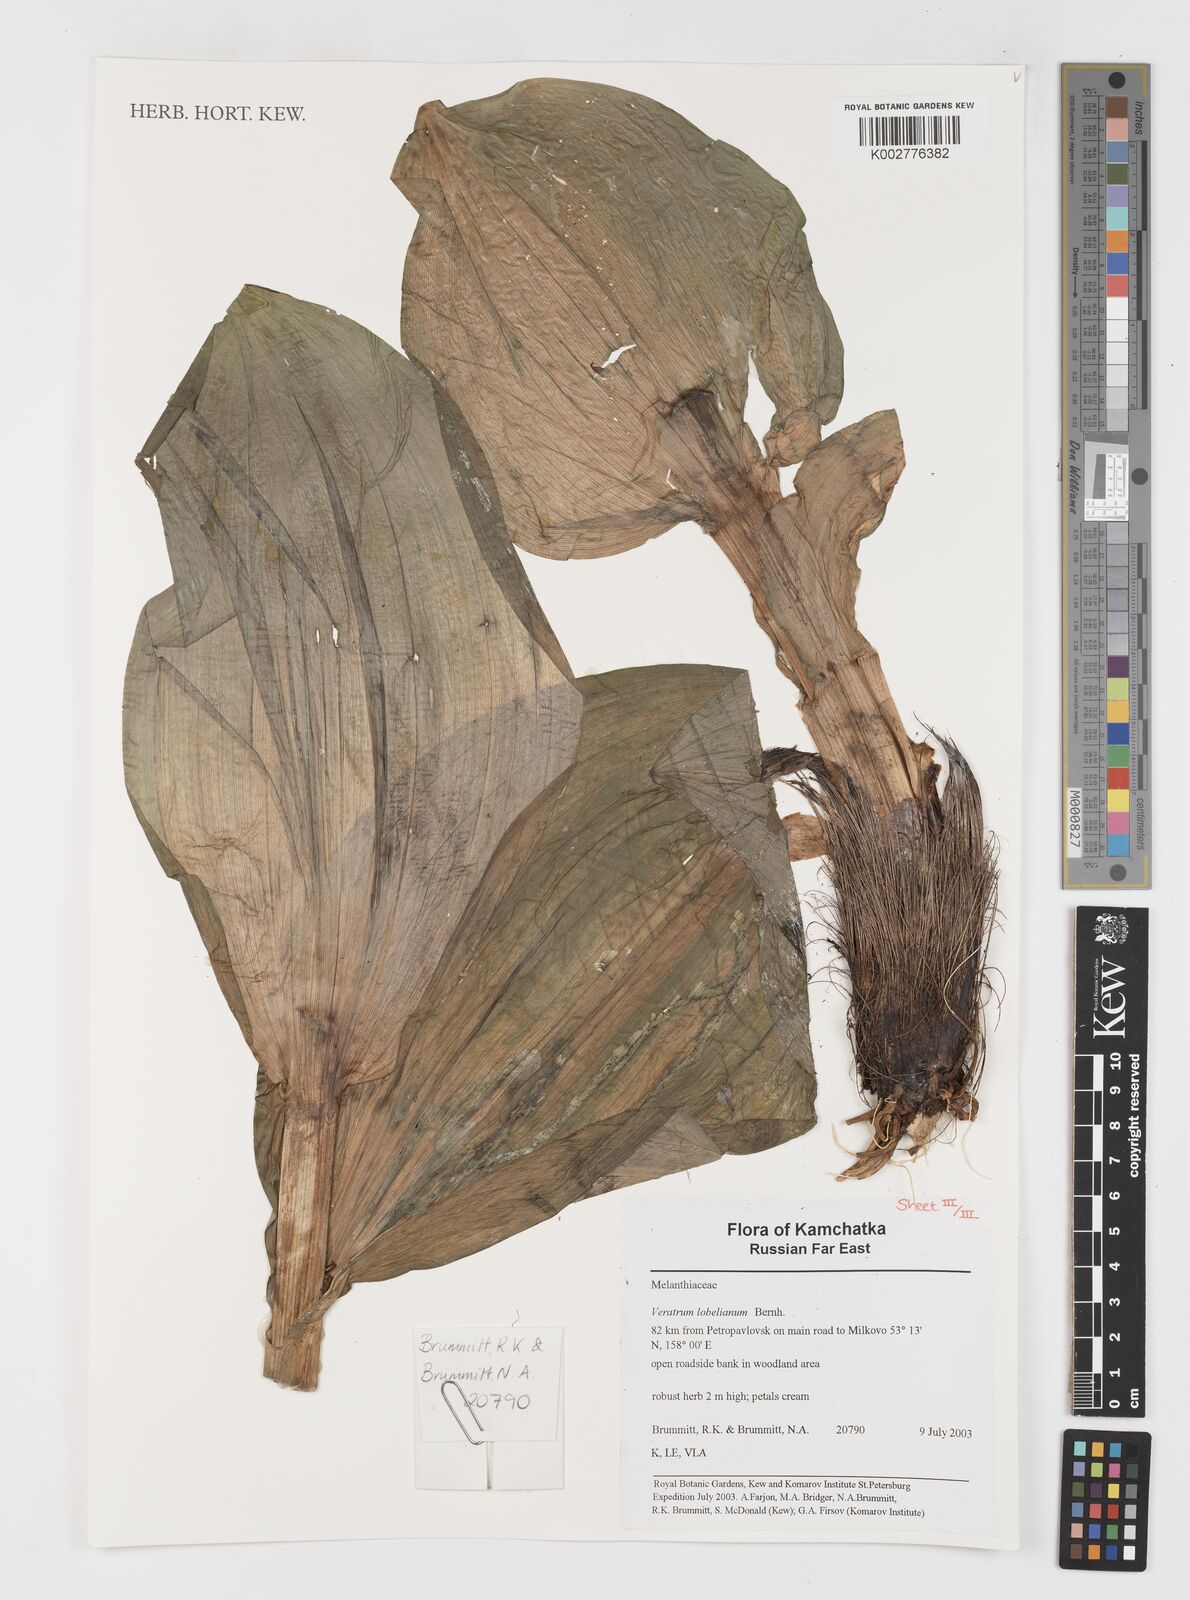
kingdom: Plantae
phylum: Tracheophyta
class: Liliopsida
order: Liliales
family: Melanthiaceae
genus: Veratrum
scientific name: Veratrum lobelianum
